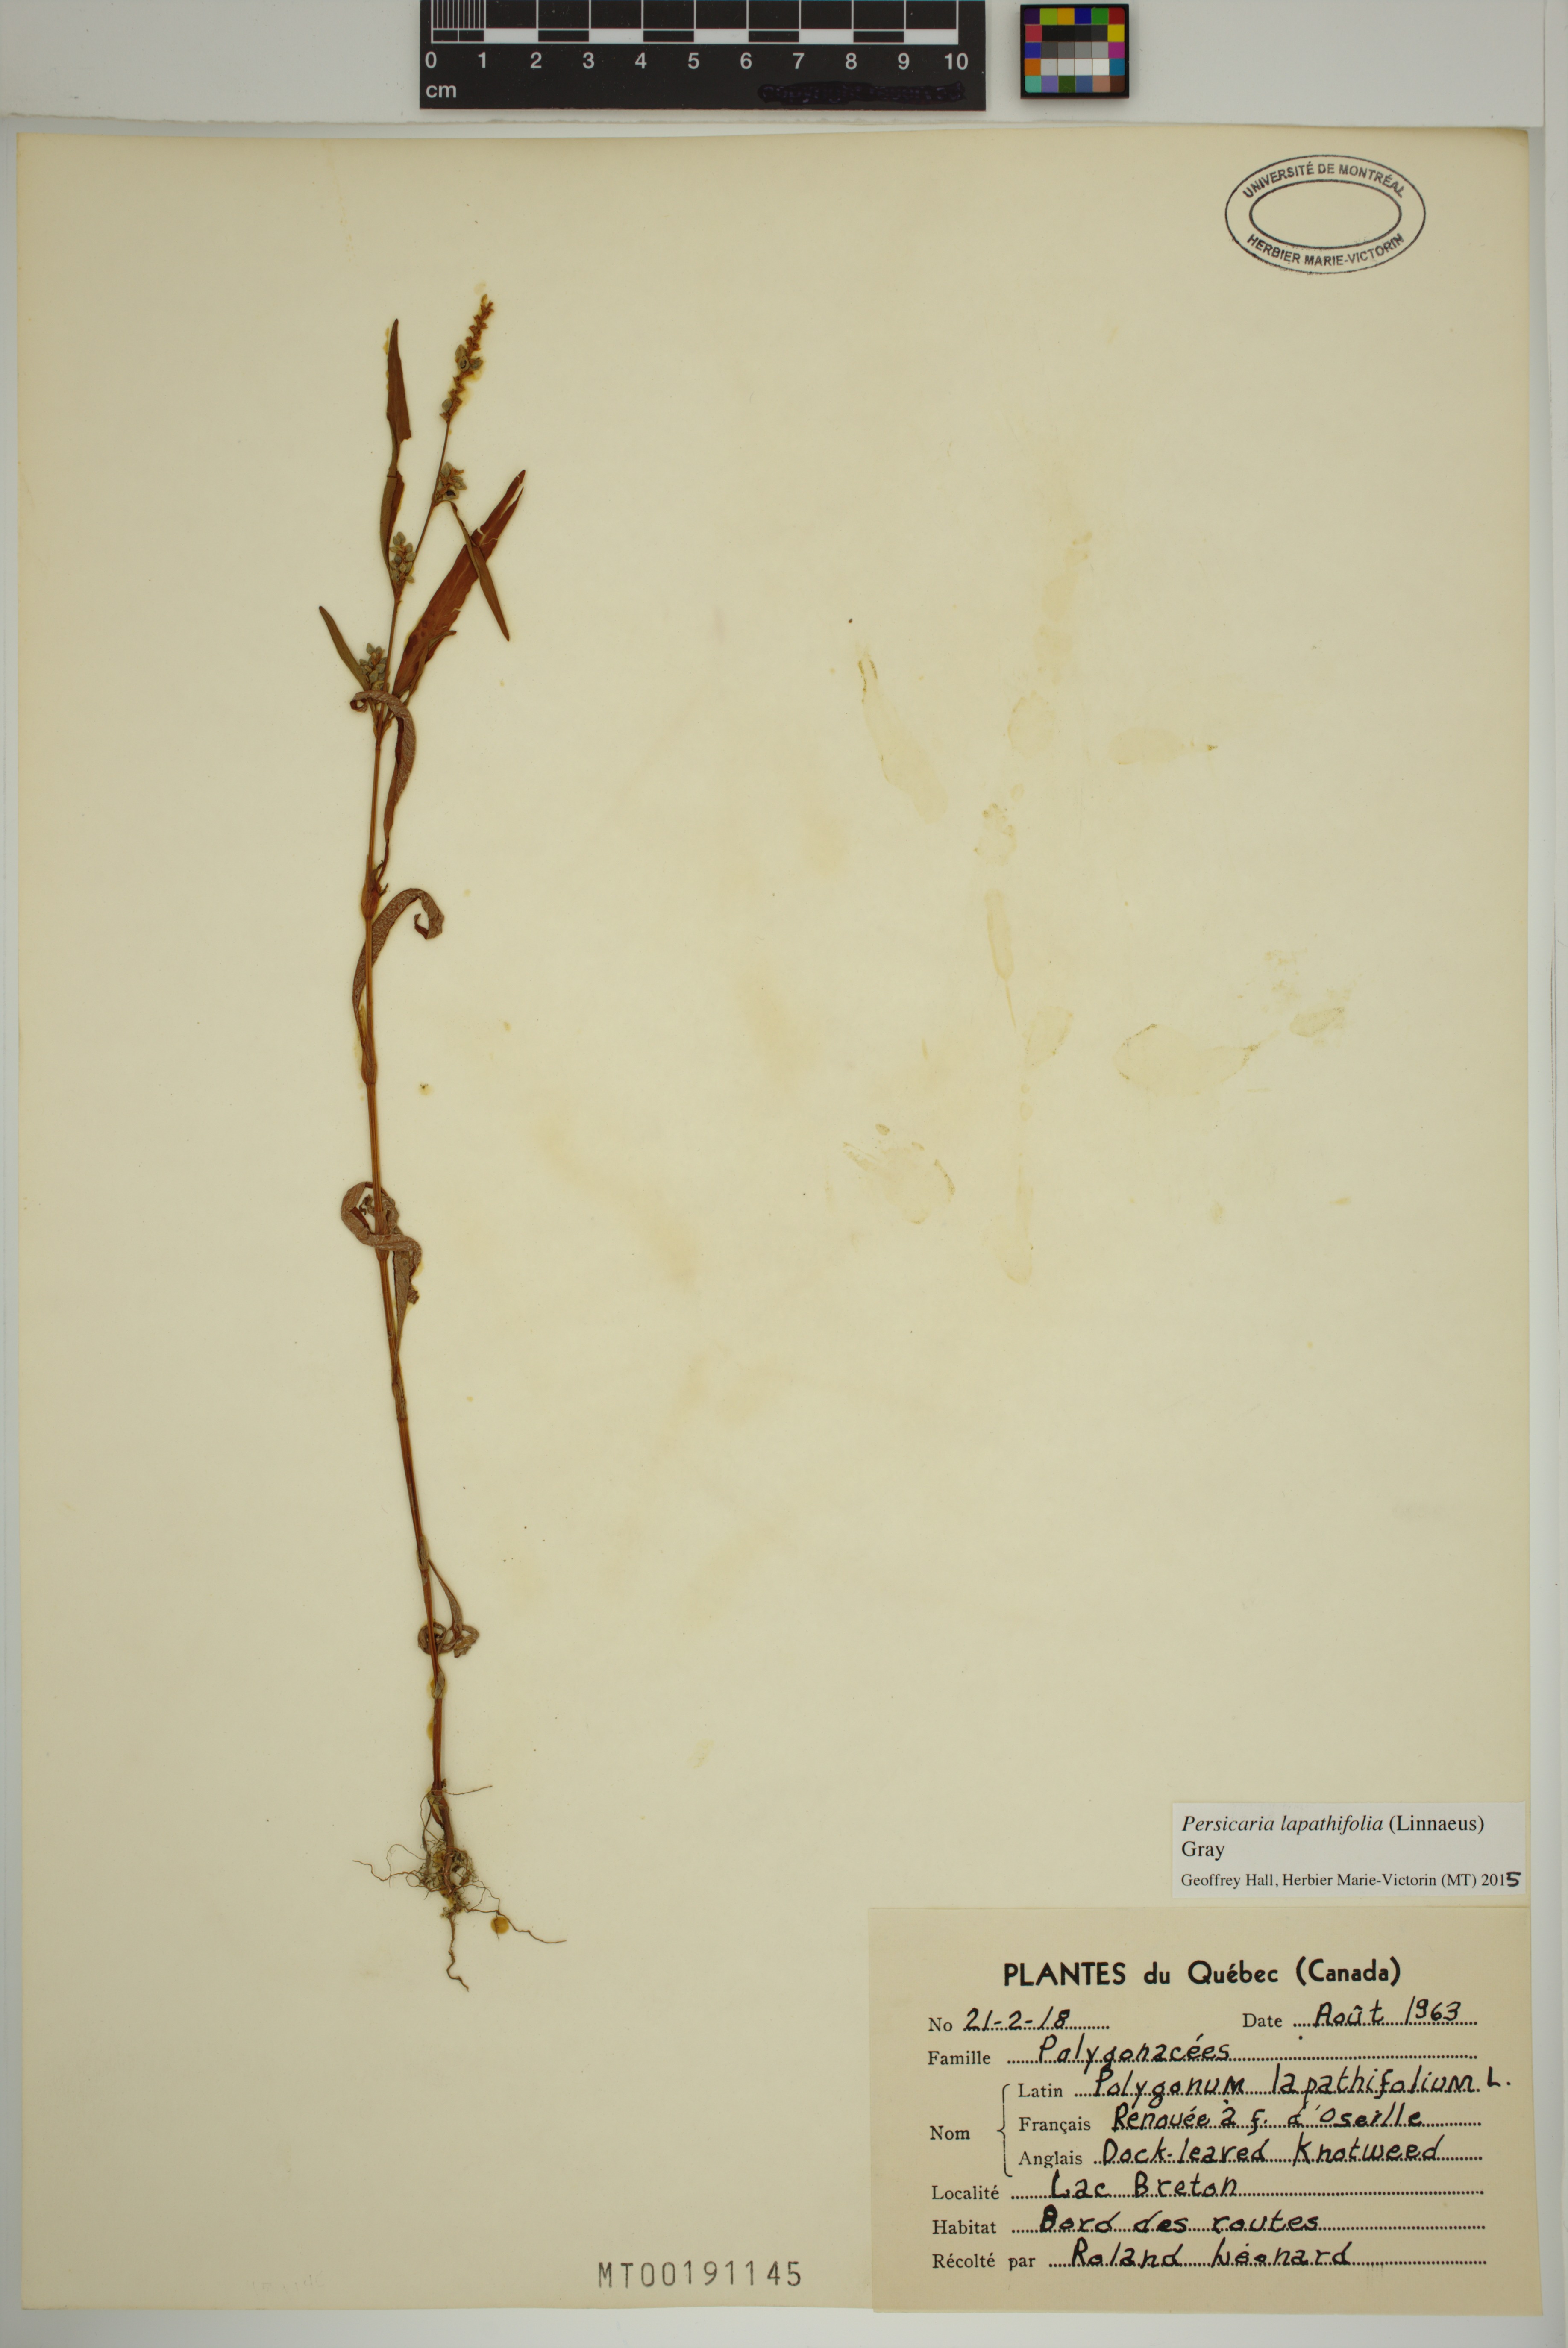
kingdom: Plantae
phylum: Tracheophyta
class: Magnoliopsida
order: Caryophyllales
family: Polygonaceae
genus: Persicaria
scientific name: Persicaria lapathifolia
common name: Curlytop knotweed
